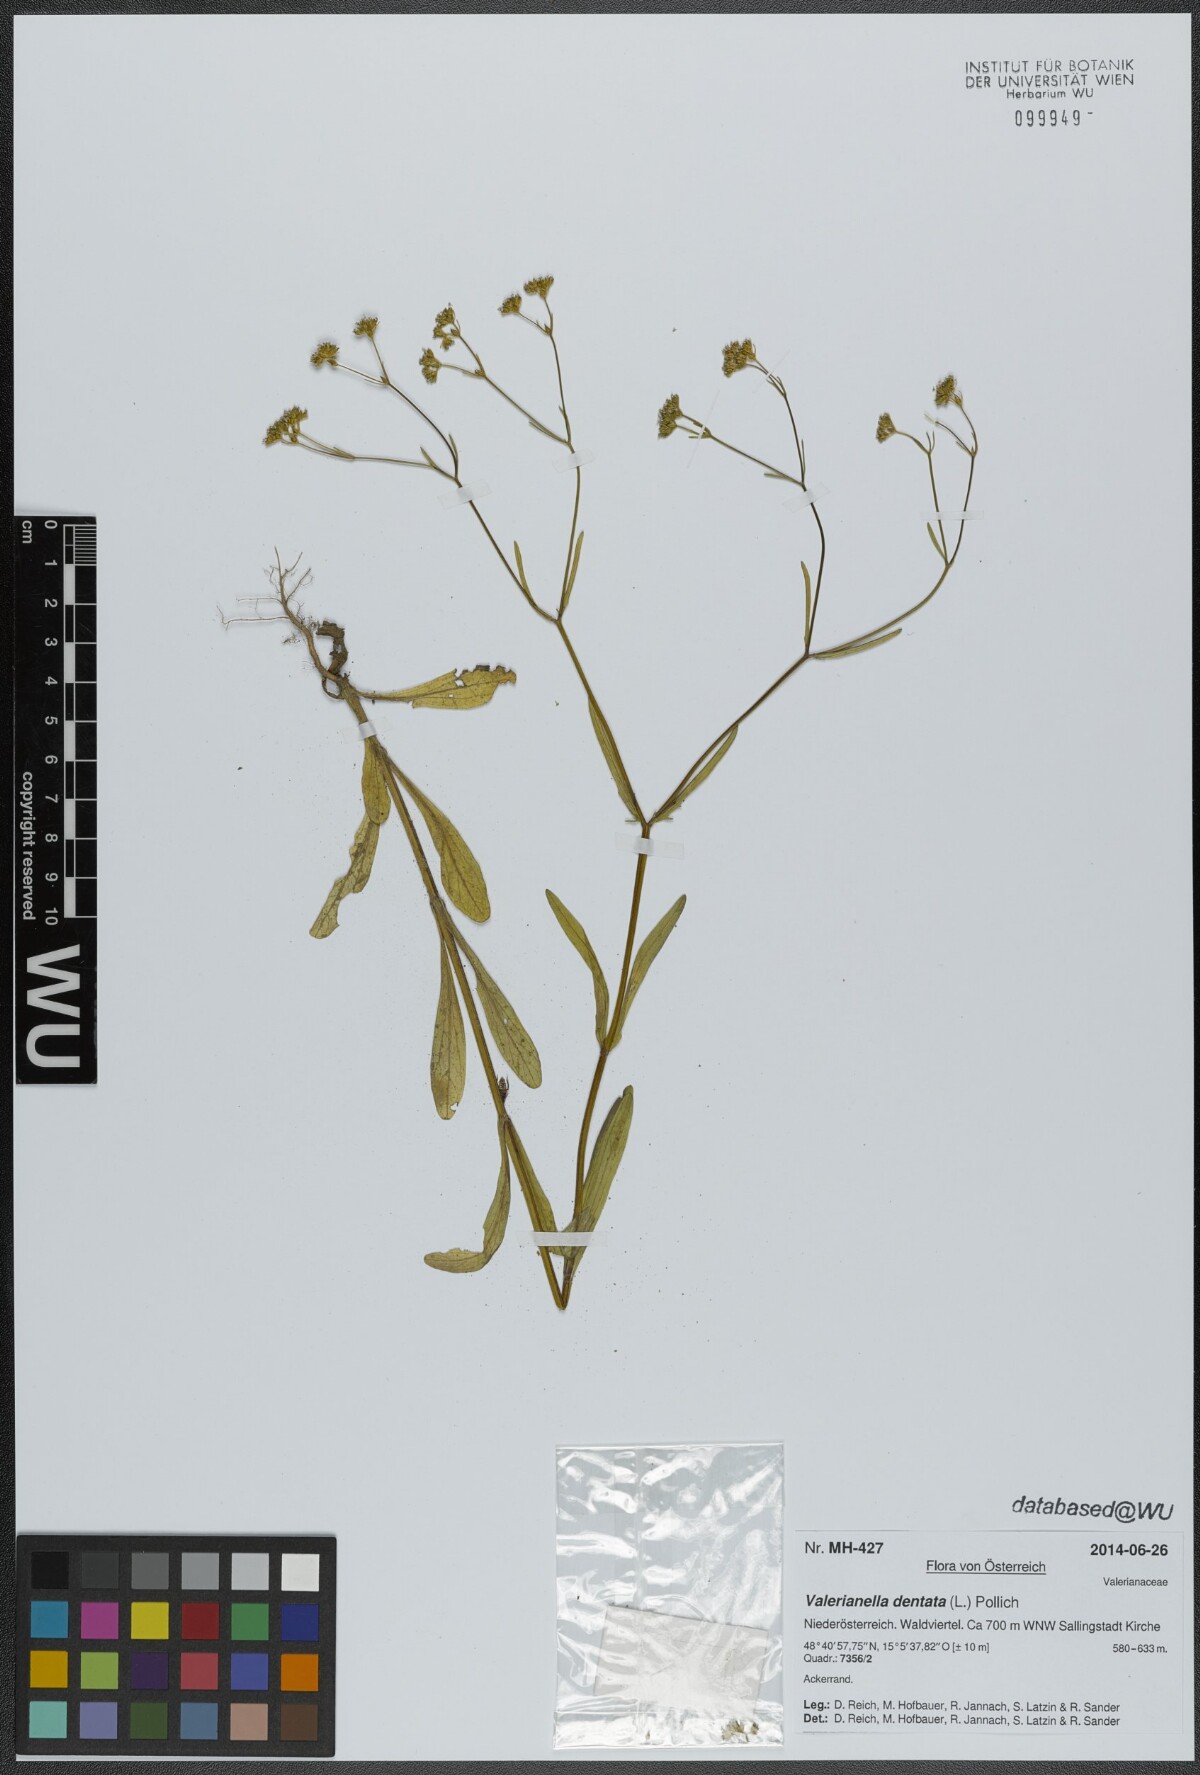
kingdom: Plantae
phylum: Tracheophyta
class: Magnoliopsida
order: Dipsacales
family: Caprifoliaceae
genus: Valerianella
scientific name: Valerianella dentata
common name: Narrow-fruited cornsalad
